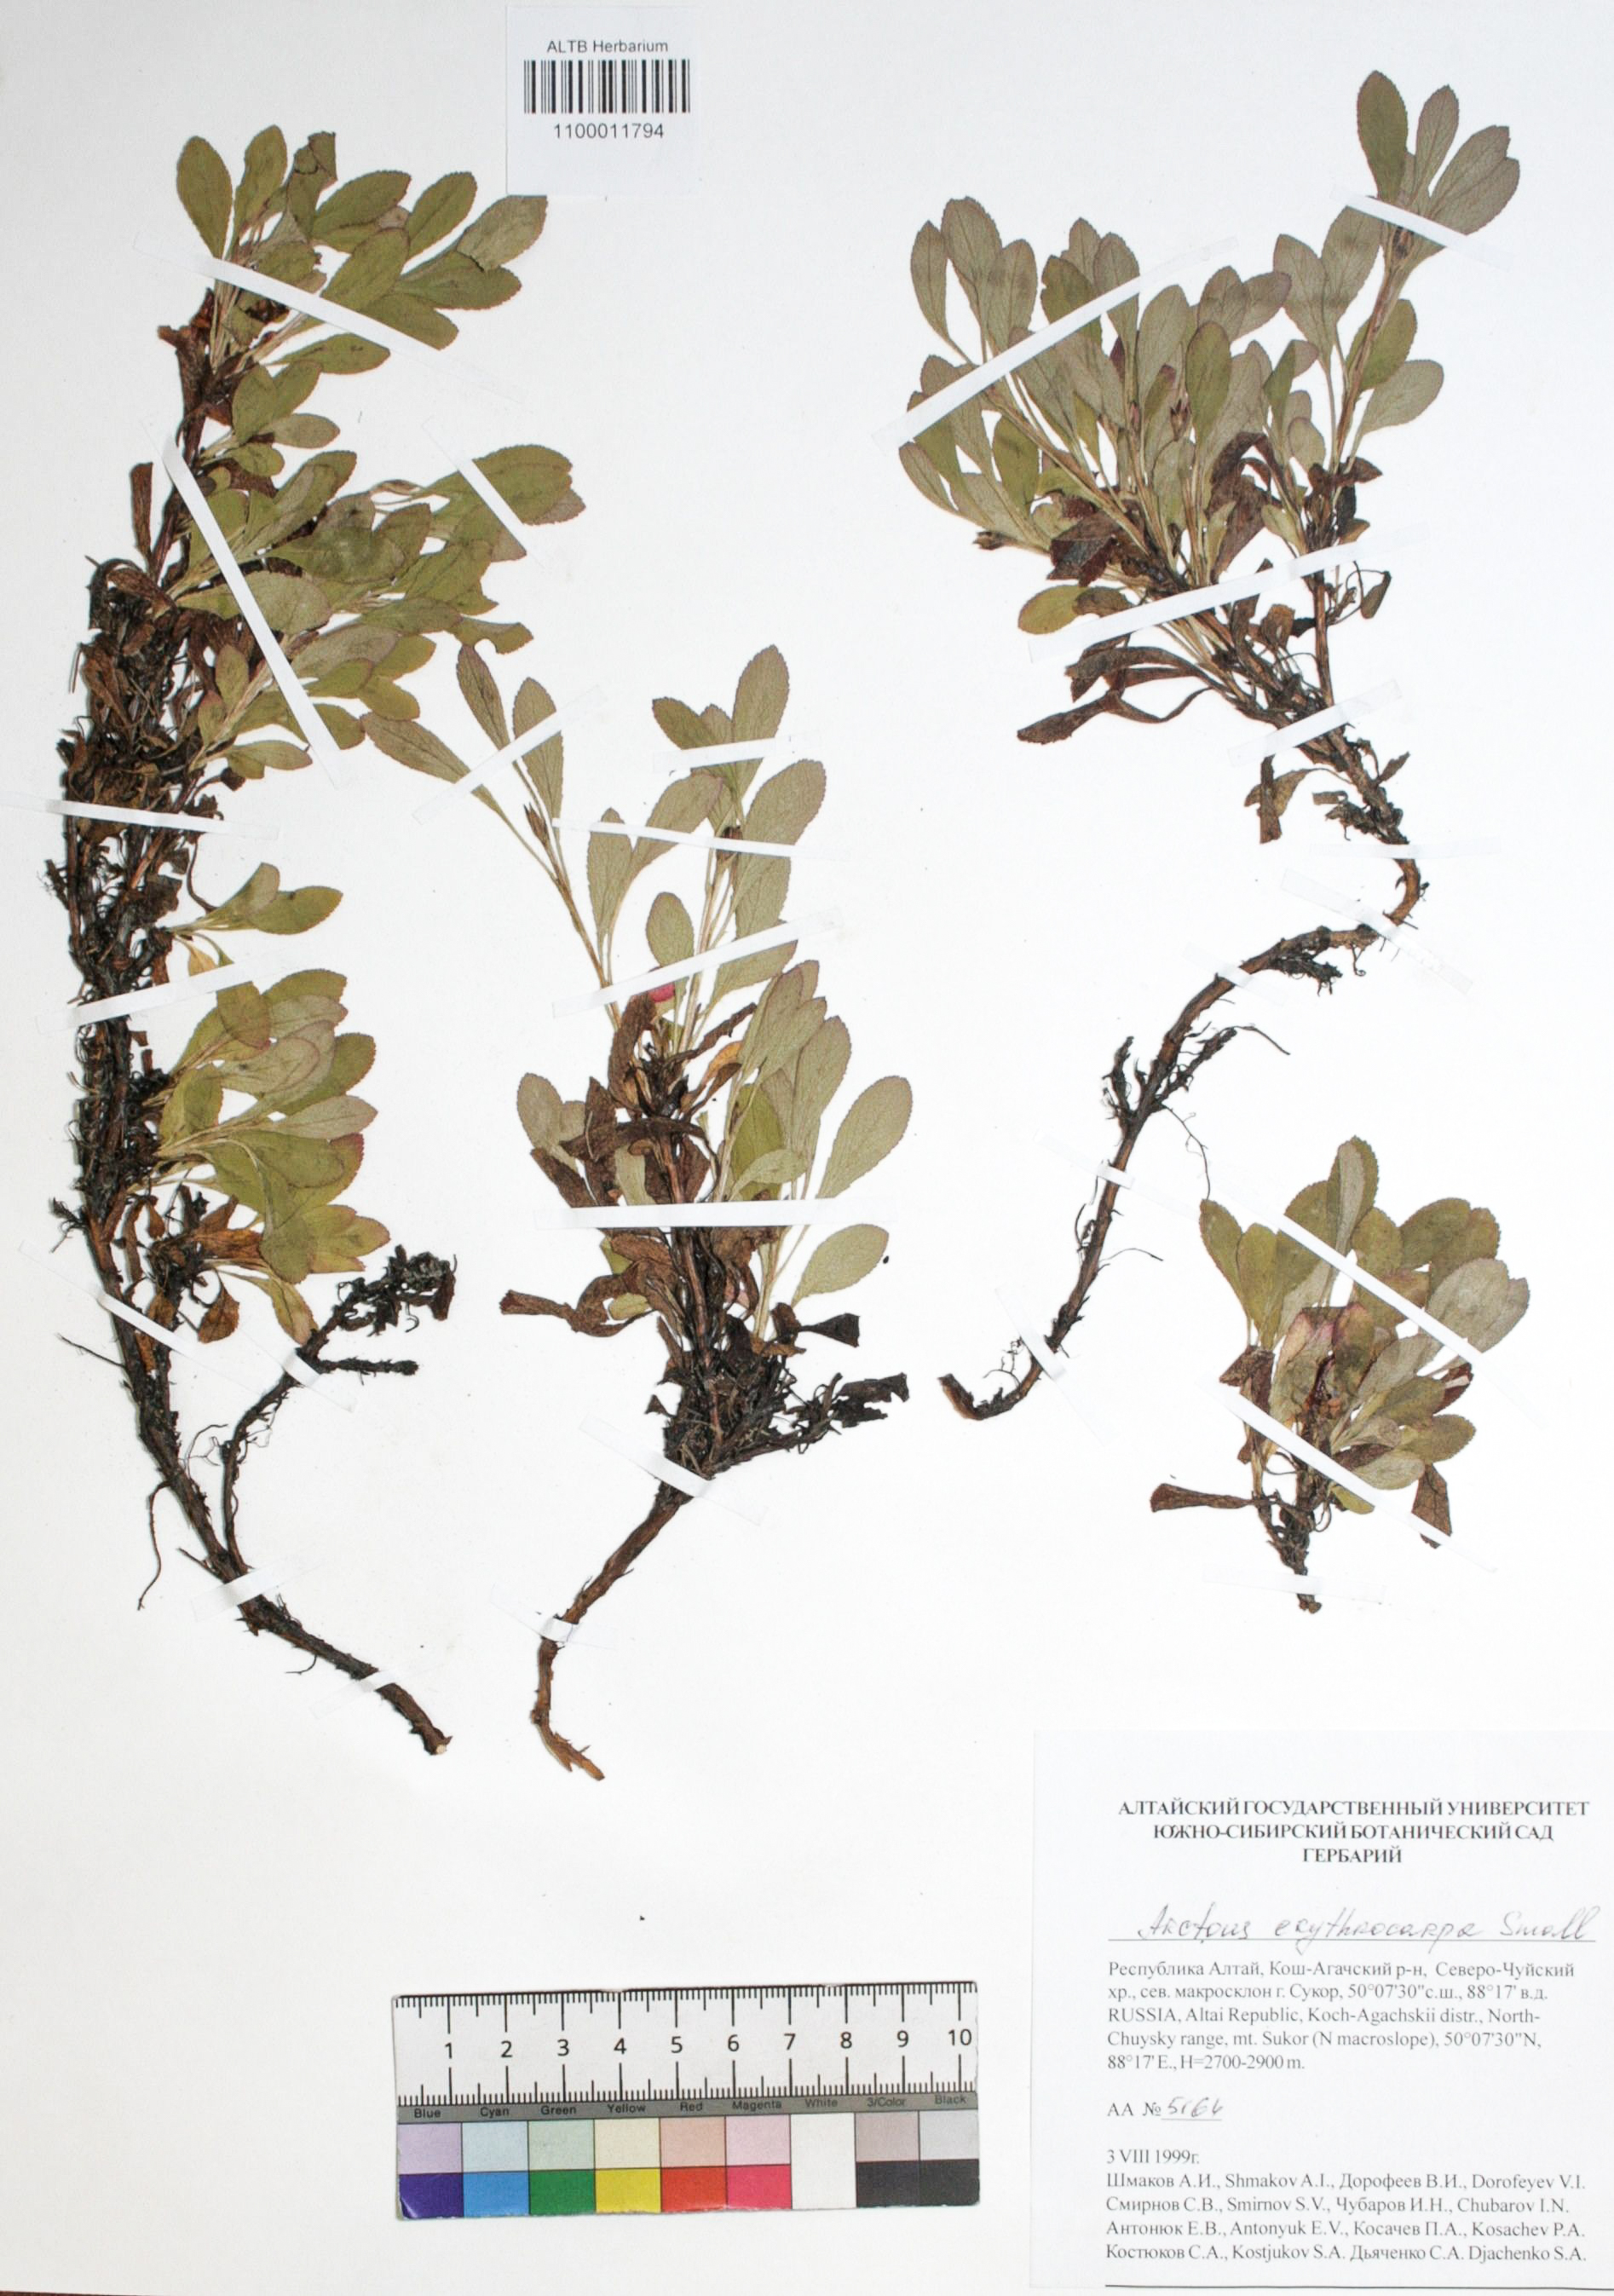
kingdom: Plantae
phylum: Tracheophyta
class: Magnoliopsida
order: Ericales
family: Ericaceae
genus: Arctostaphylos
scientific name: Arctostaphylos rubra
